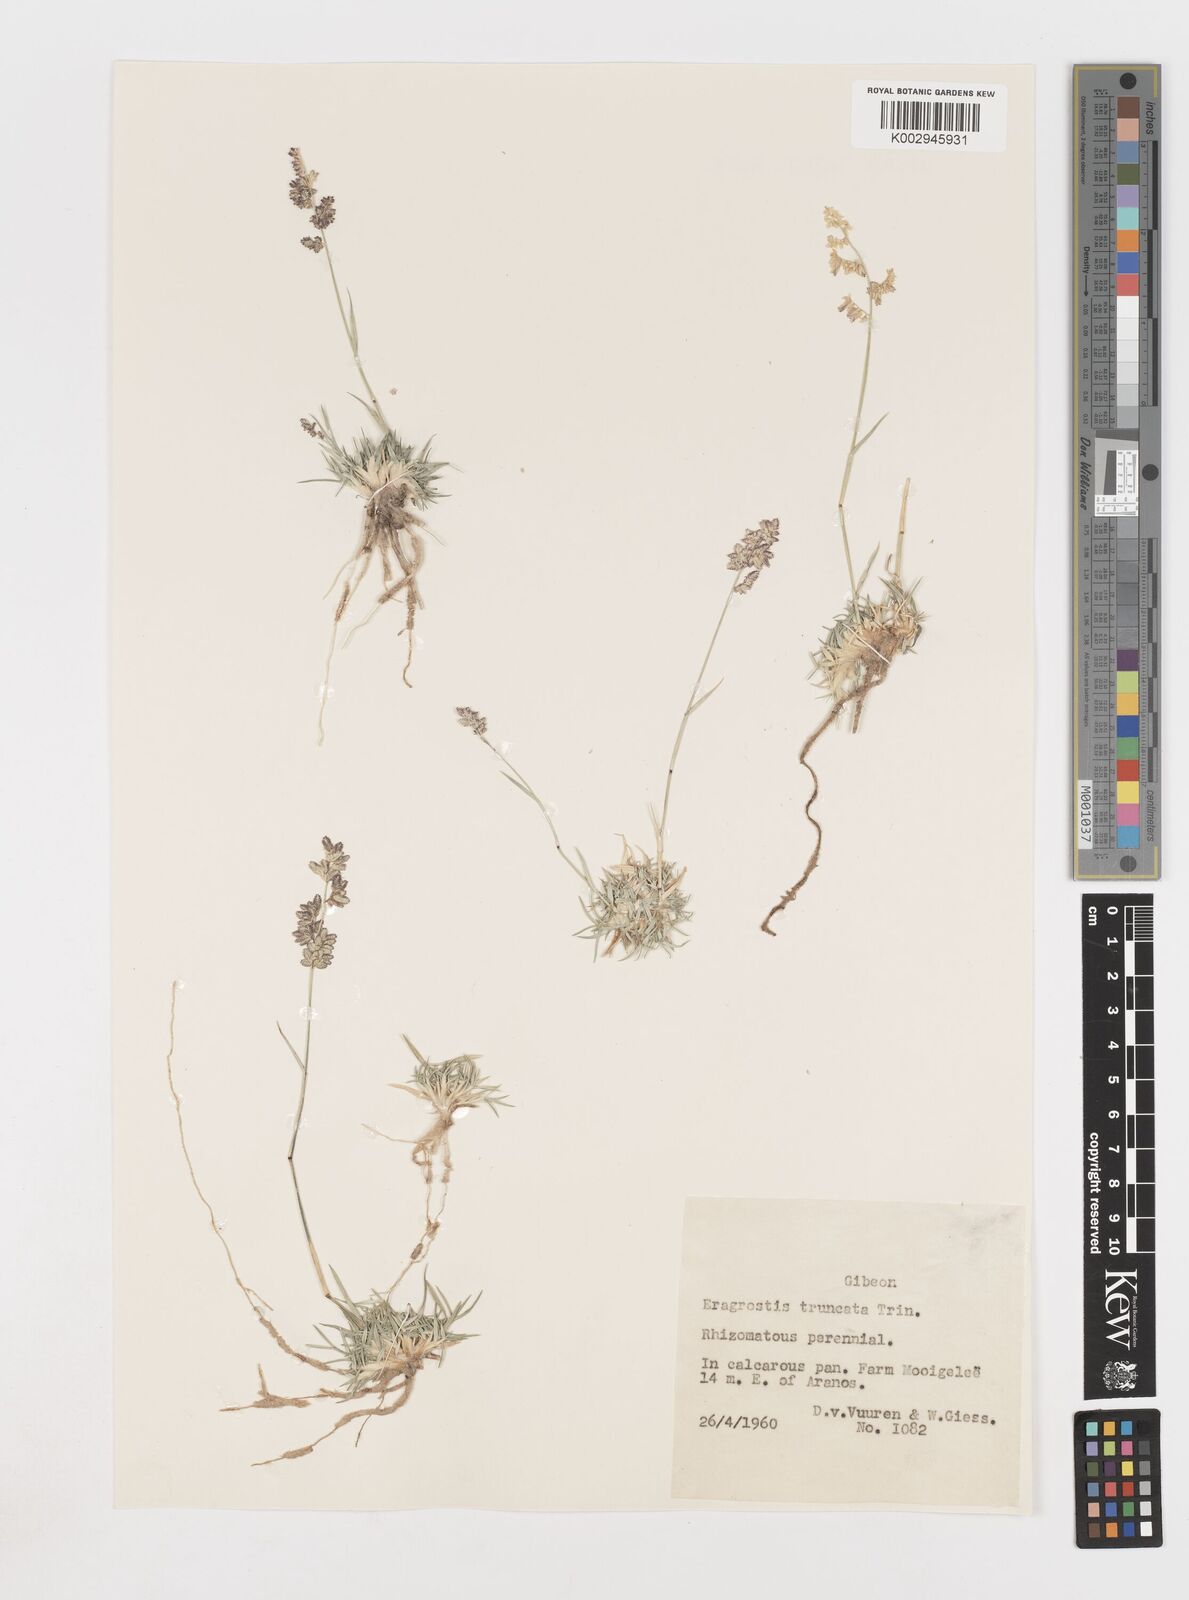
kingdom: Plantae
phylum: Tracheophyta
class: Liliopsida
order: Poales
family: Poaceae
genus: Eragrostis
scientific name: Eragrostis truncata
